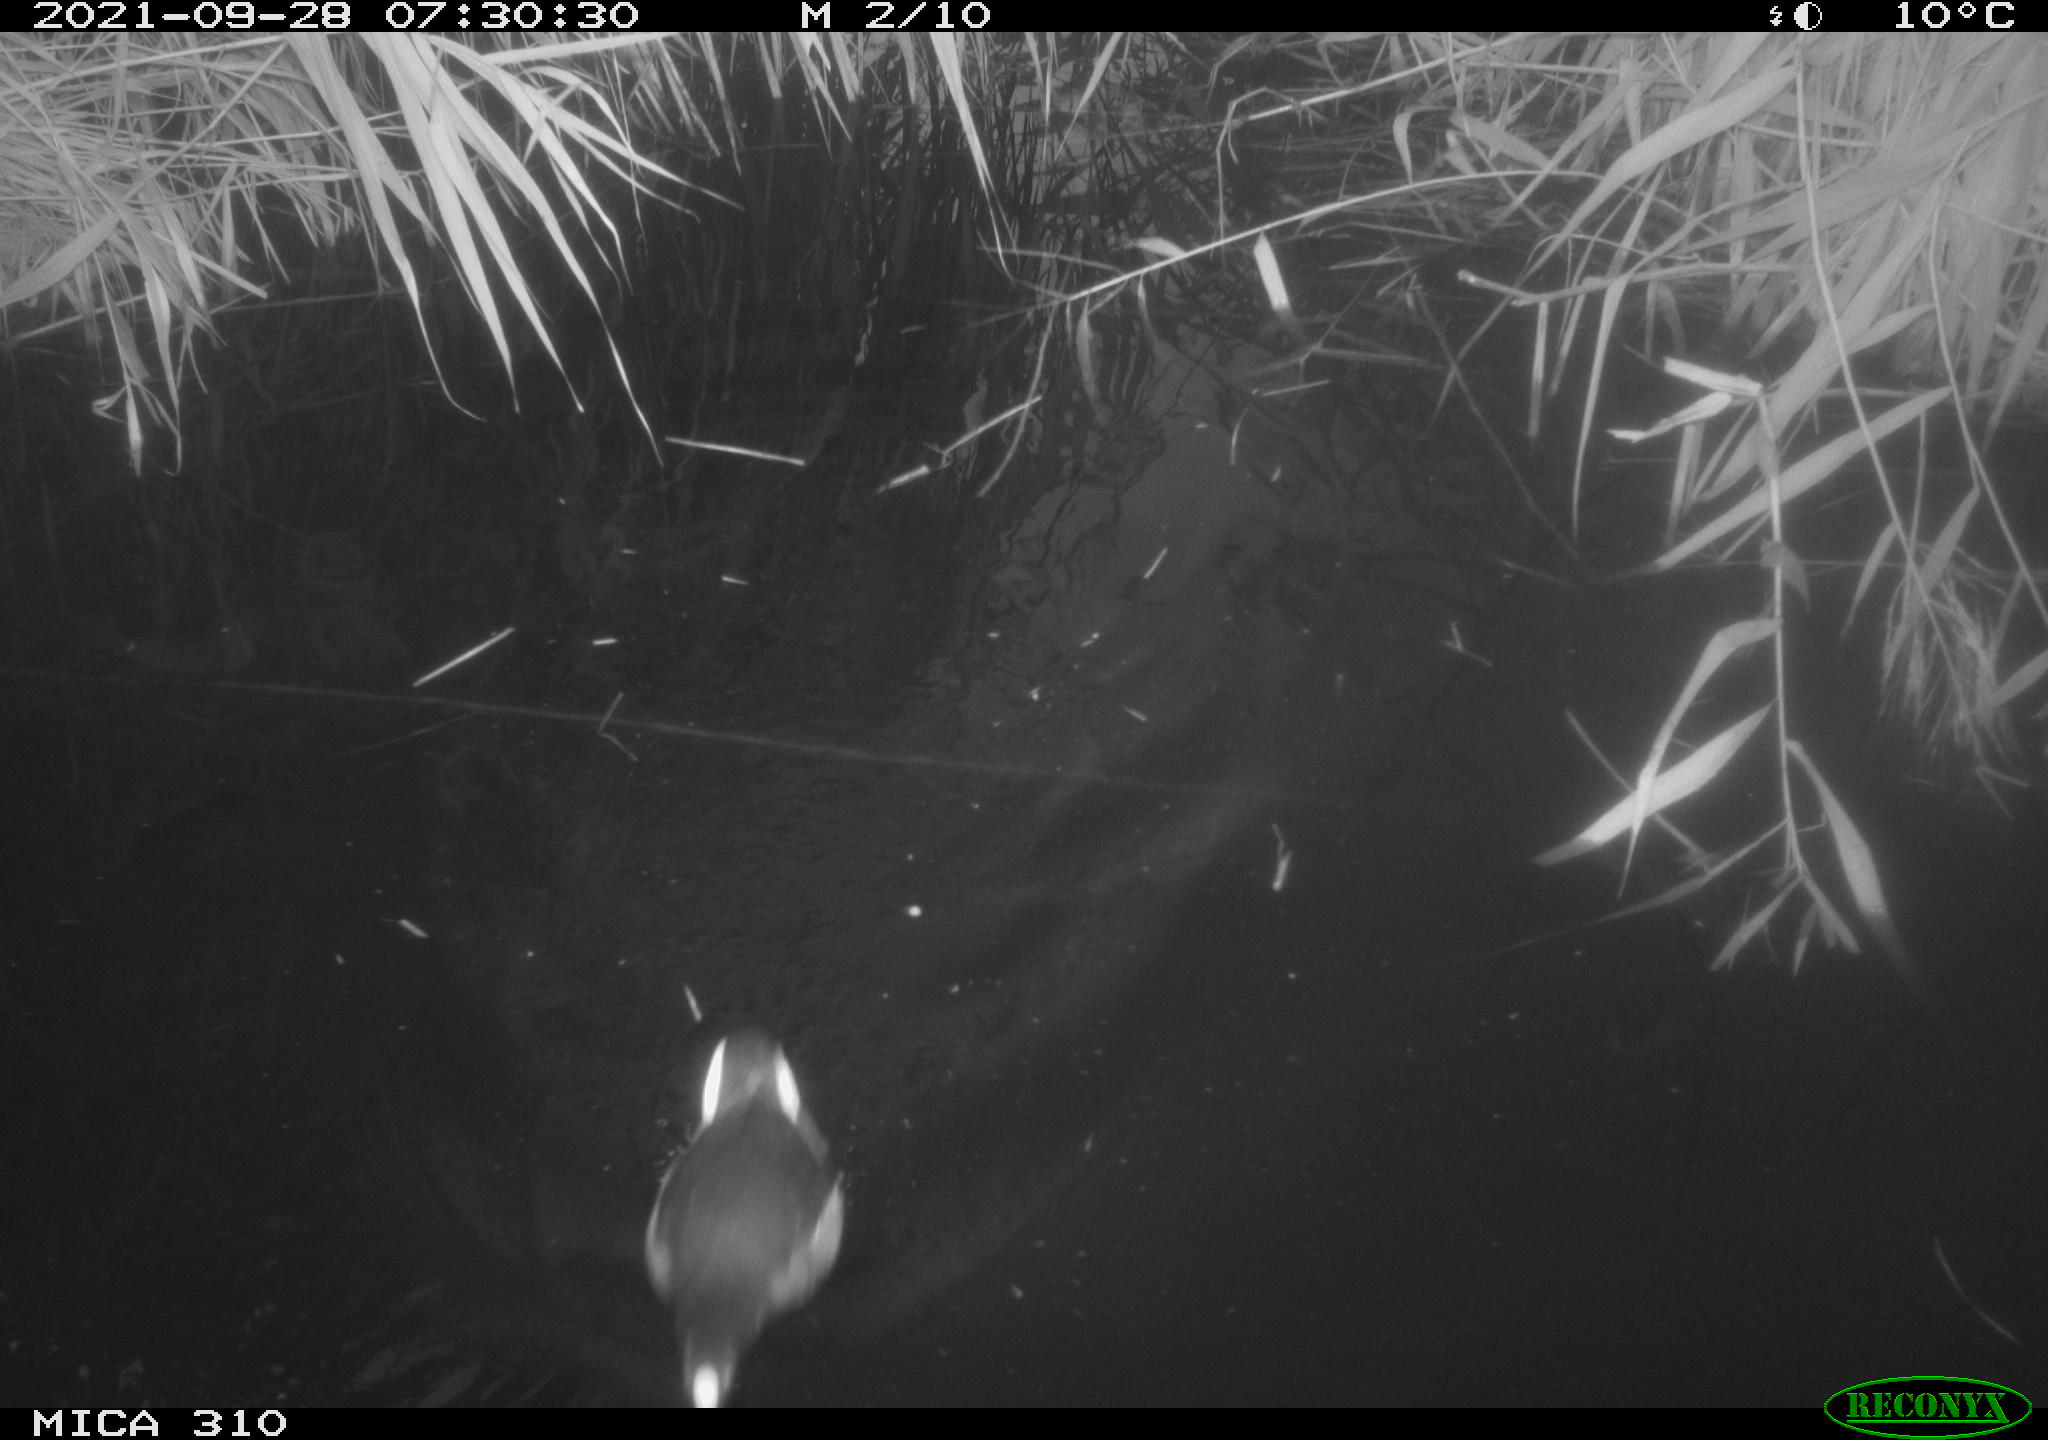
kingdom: Animalia
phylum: Chordata
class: Aves
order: Anseriformes
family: Anatidae
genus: Mareca
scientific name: Mareca strepera
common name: Gadwall
